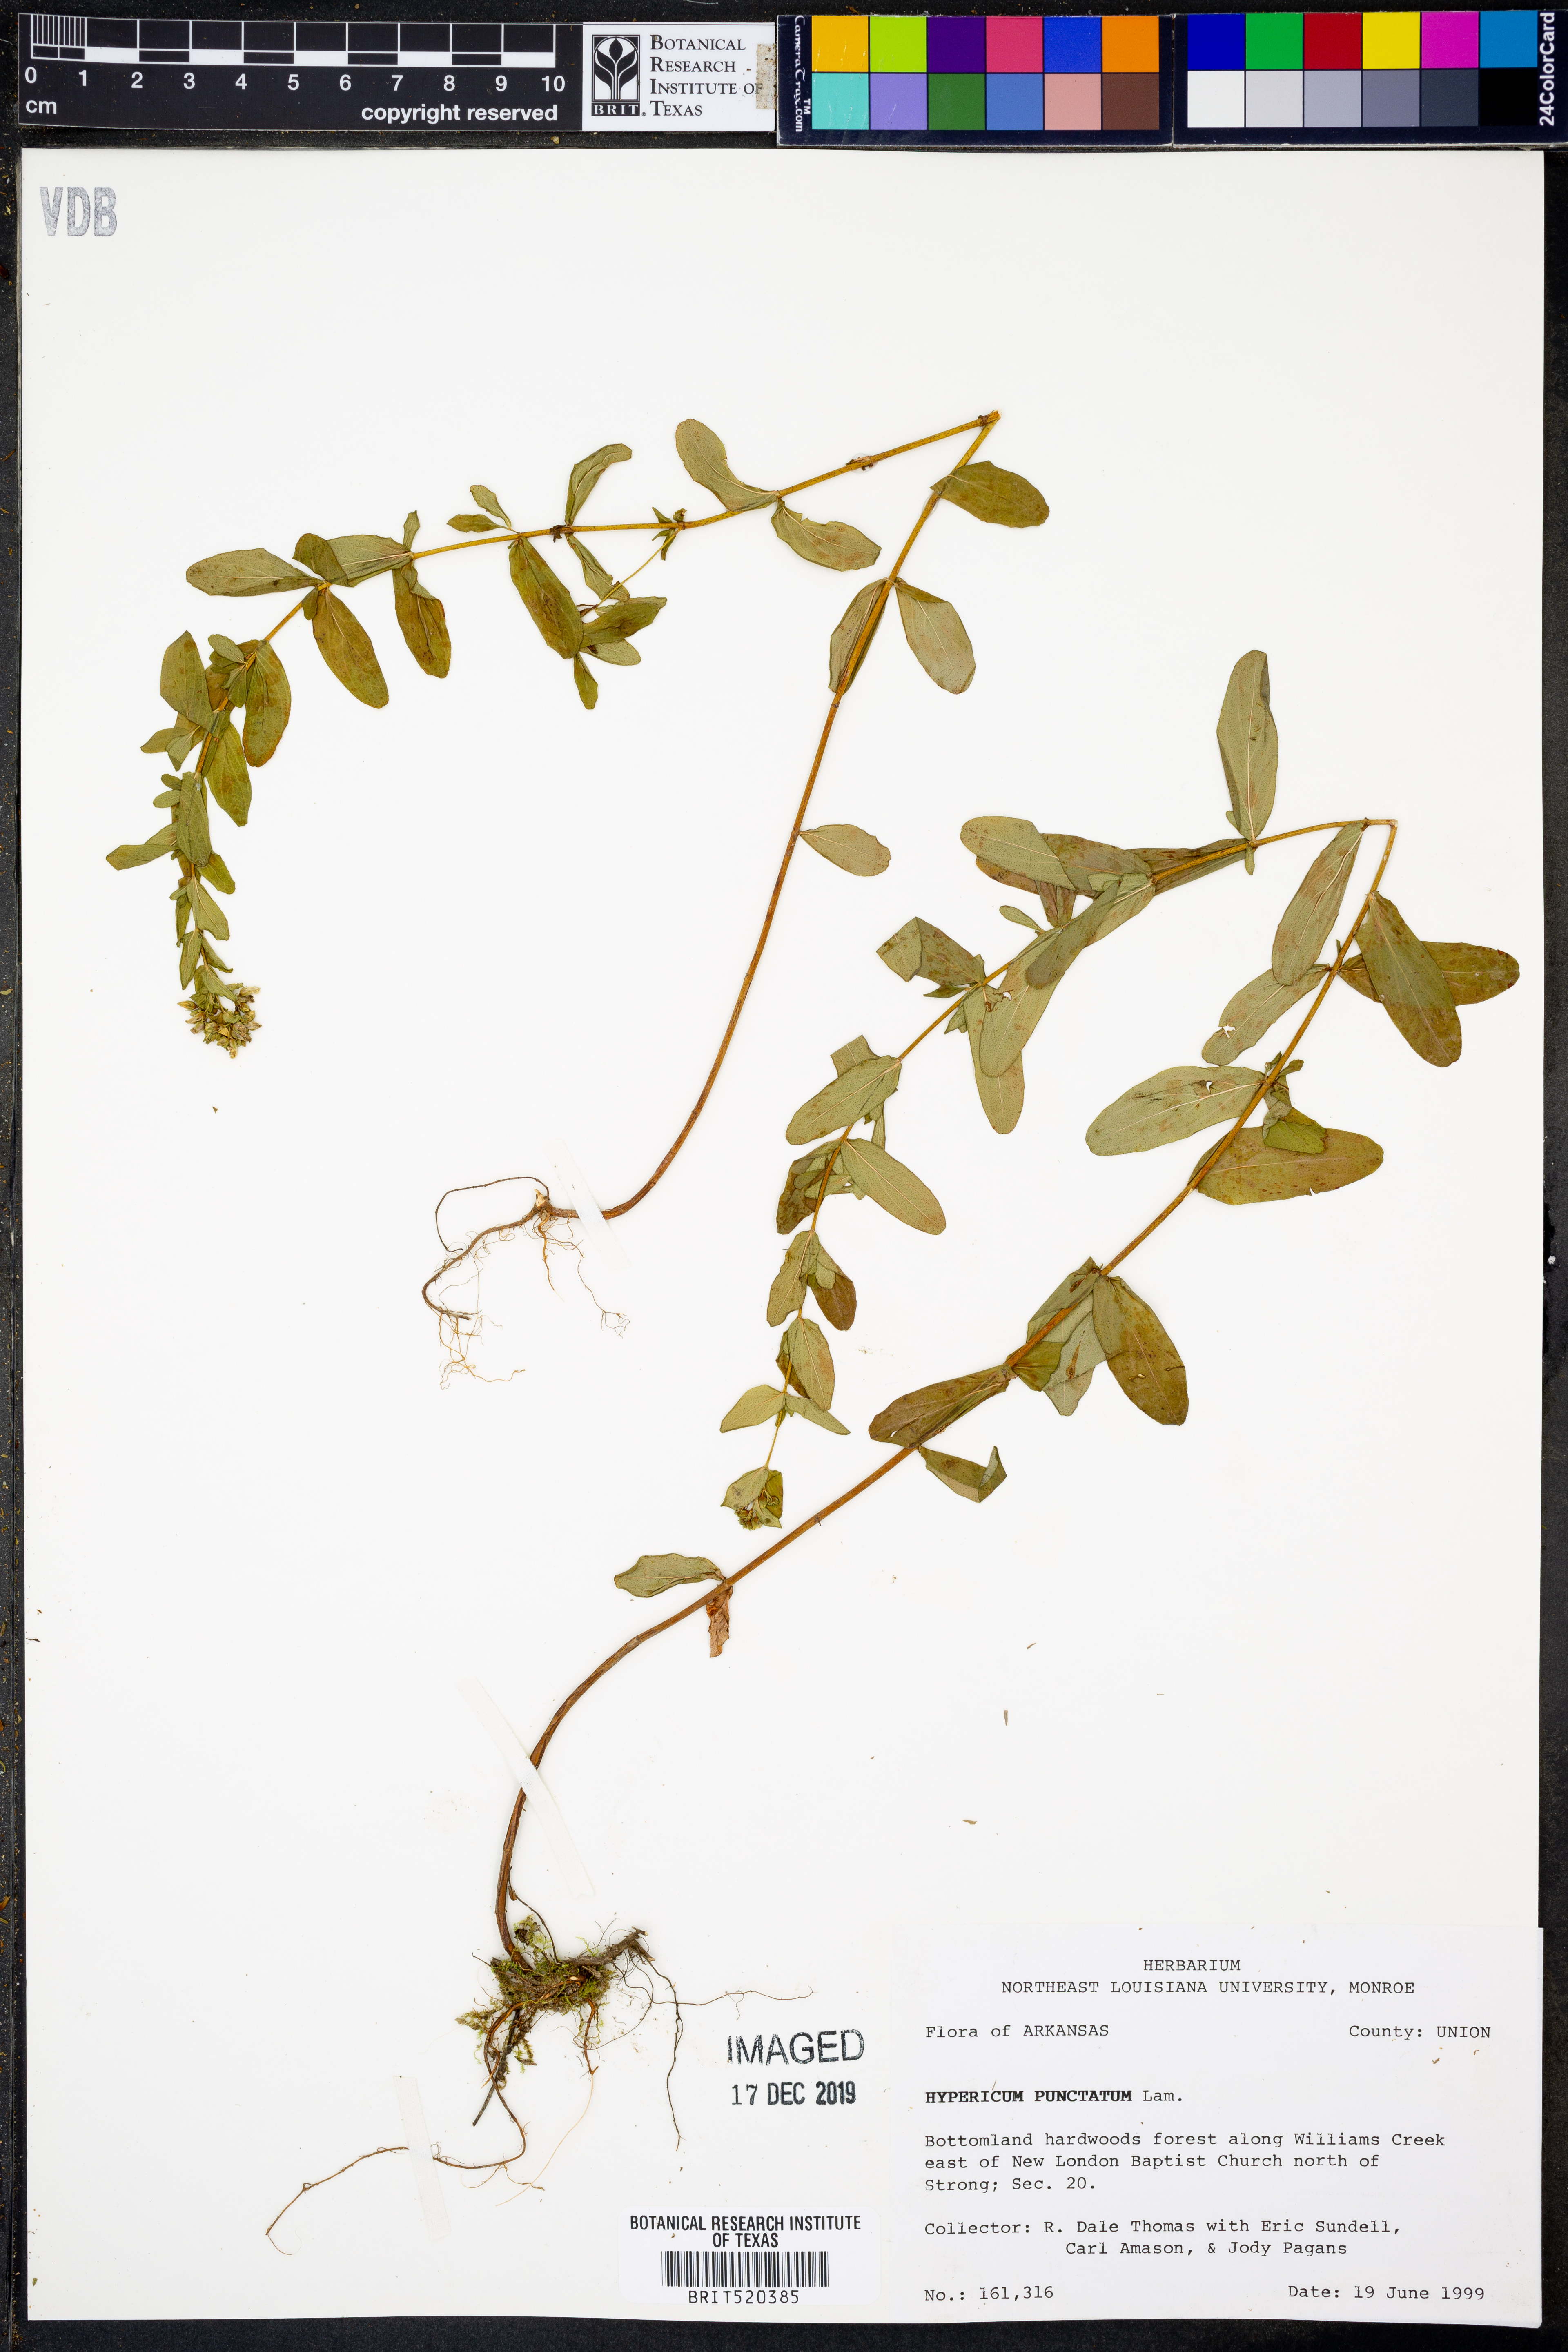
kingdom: Plantae
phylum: Tracheophyta
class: Magnoliopsida
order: Malpighiales
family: Hypericaceae
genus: Hypericum
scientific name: Hypericum punctatum
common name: Spotted st. john's-wort
